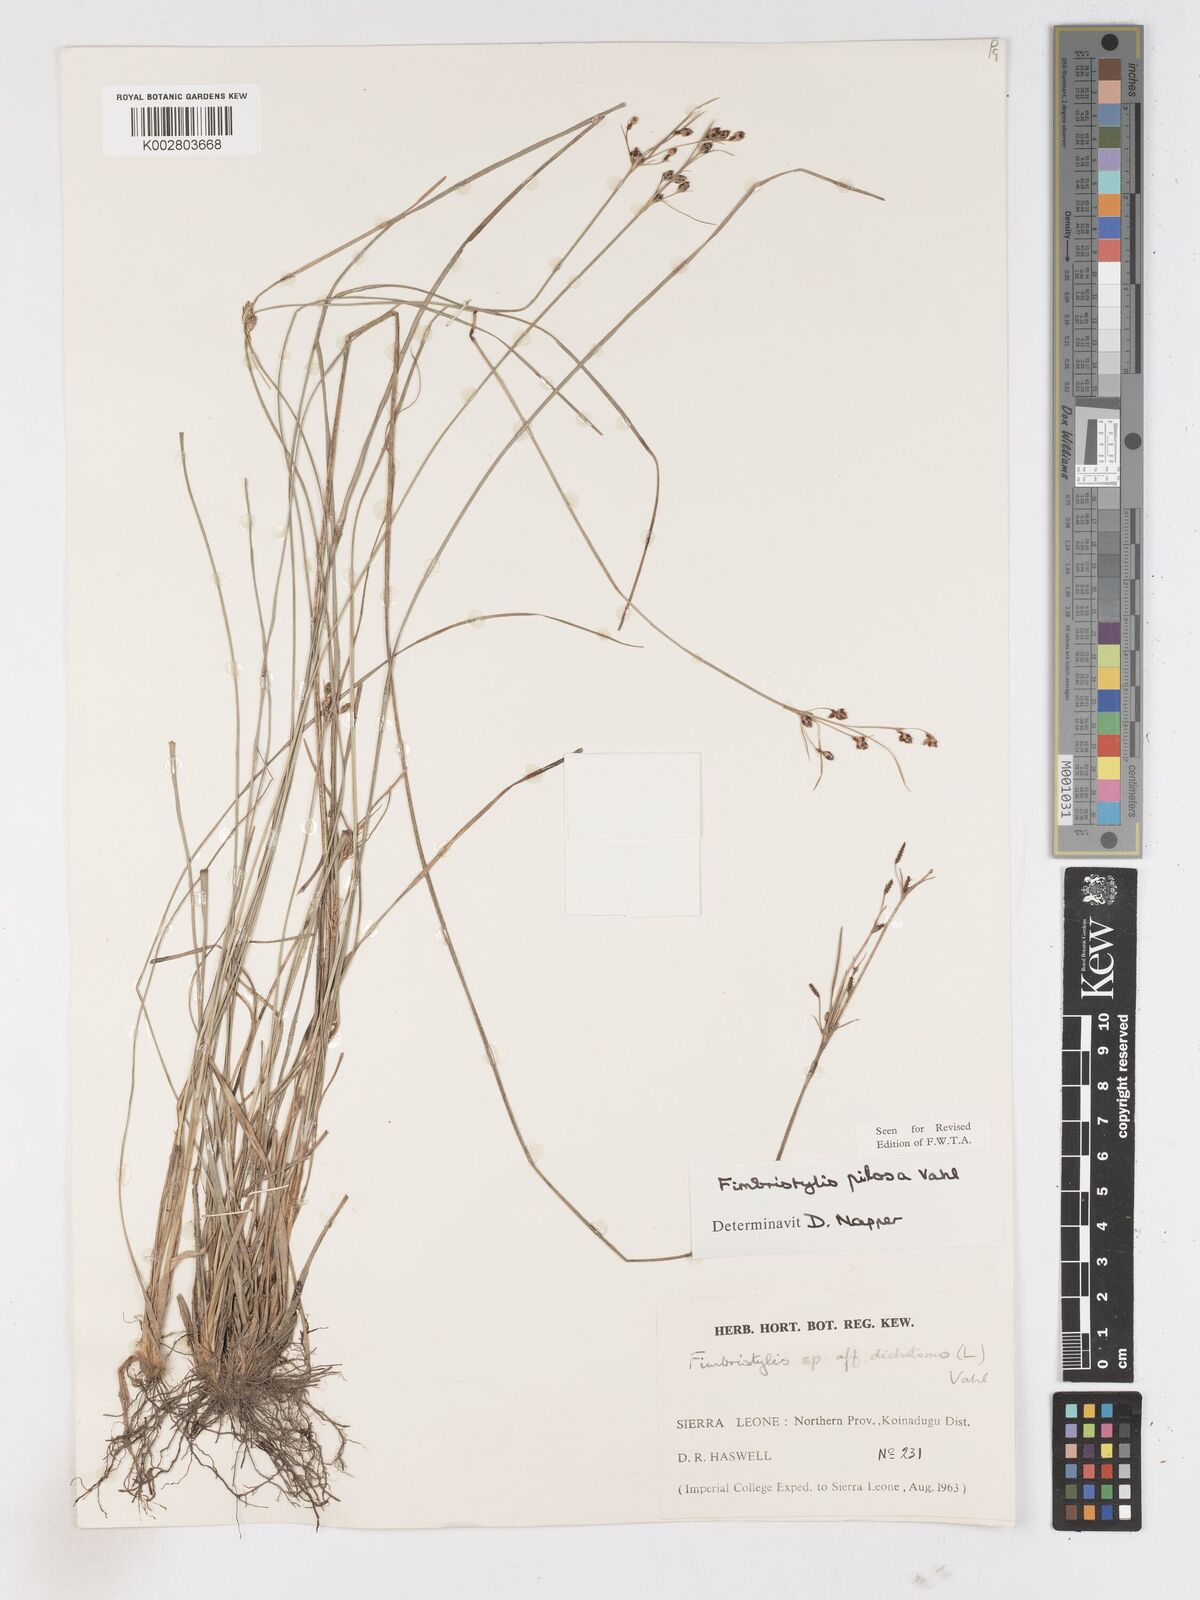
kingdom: Plantae
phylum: Tracheophyta
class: Liliopsida
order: Poales
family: Cyperaceae
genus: Fimbristylis
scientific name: Fimbristylis pilosa
